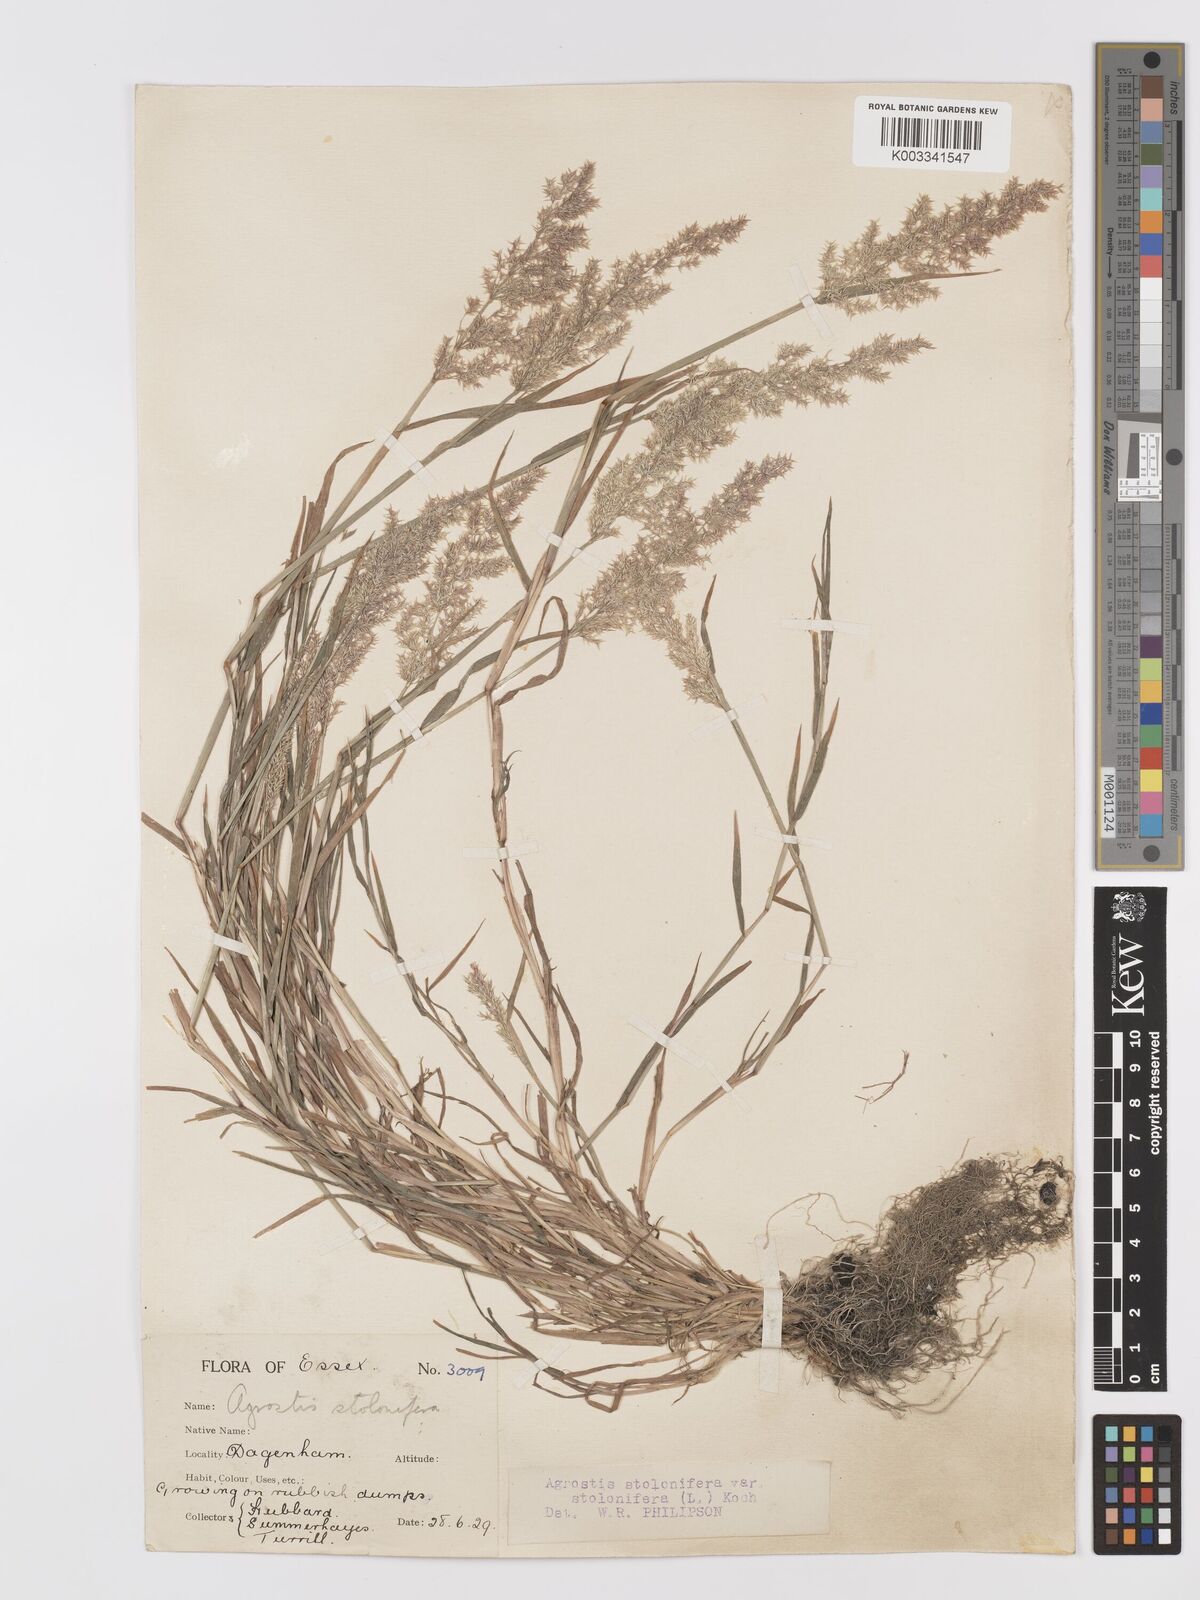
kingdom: Plantae
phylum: Tracheophyta
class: Liliopsida
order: Poales
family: Poaceae
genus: Agrostis
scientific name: Agrostis stolonifera
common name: Creeping bentgrass
